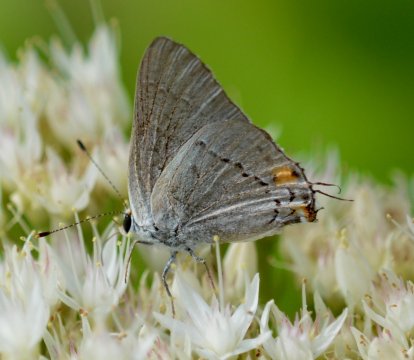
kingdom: Animalia
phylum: Arthropoda
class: Insecta
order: Lepidoptera
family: Lycaenidae
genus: Strymon
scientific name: Strymon melinus
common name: Gray Hairstreak
